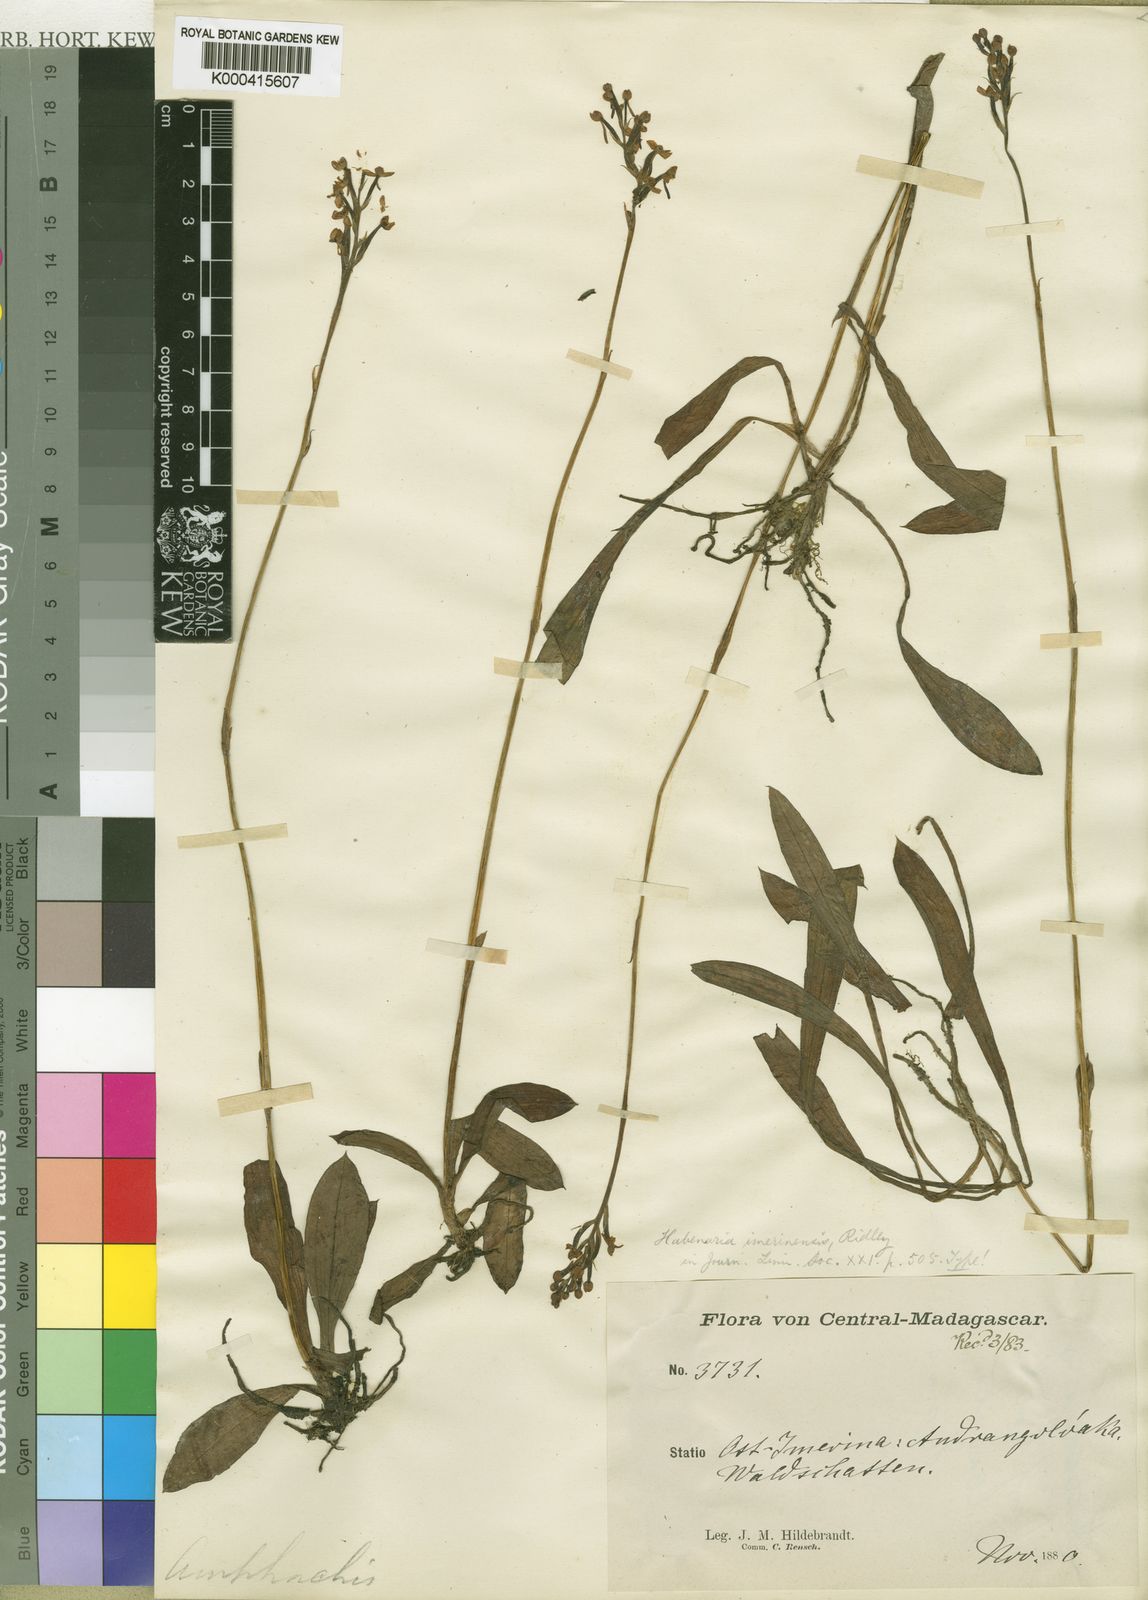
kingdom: Plantae
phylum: Tracheophyta
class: Liliopsida
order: Asparagales
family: Orchidaceae
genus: Cynorkis
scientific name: Cynorkis rosellata
